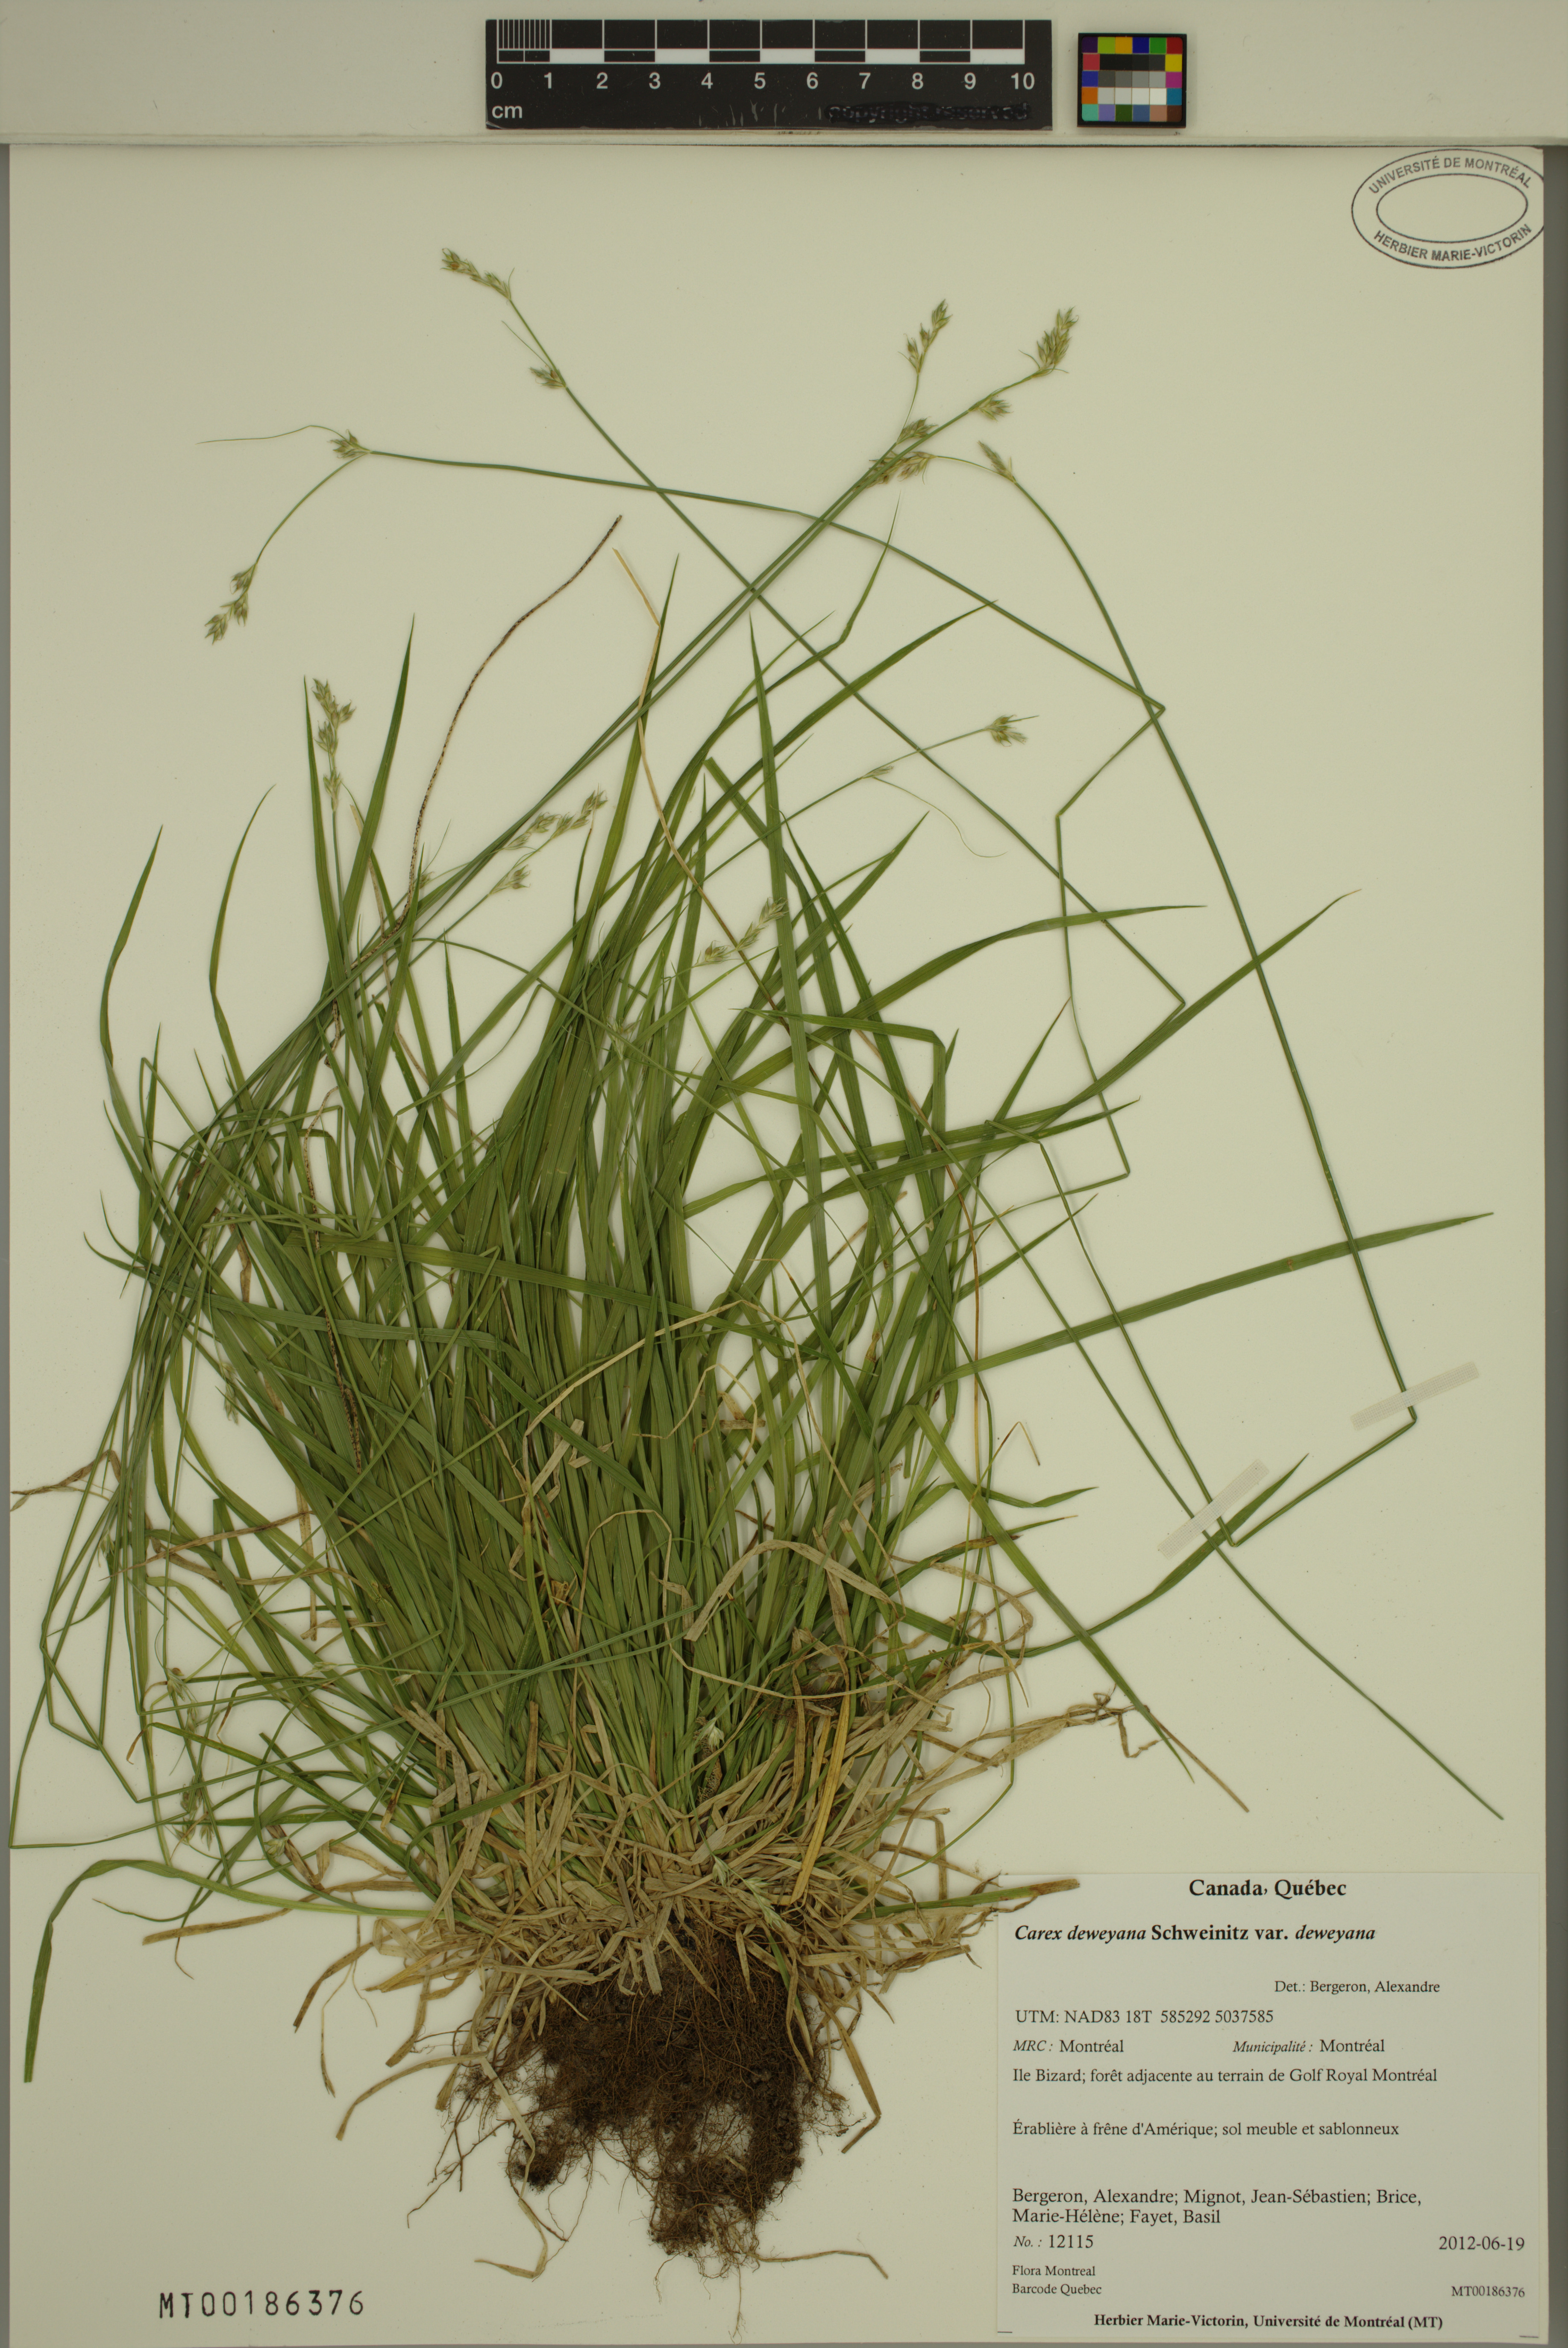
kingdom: Plantae
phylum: Tracheophyta
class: Liliopsida
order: Poales
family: Cyperaceae
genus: Carex
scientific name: Carex deweyana
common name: Dewey's sedge
